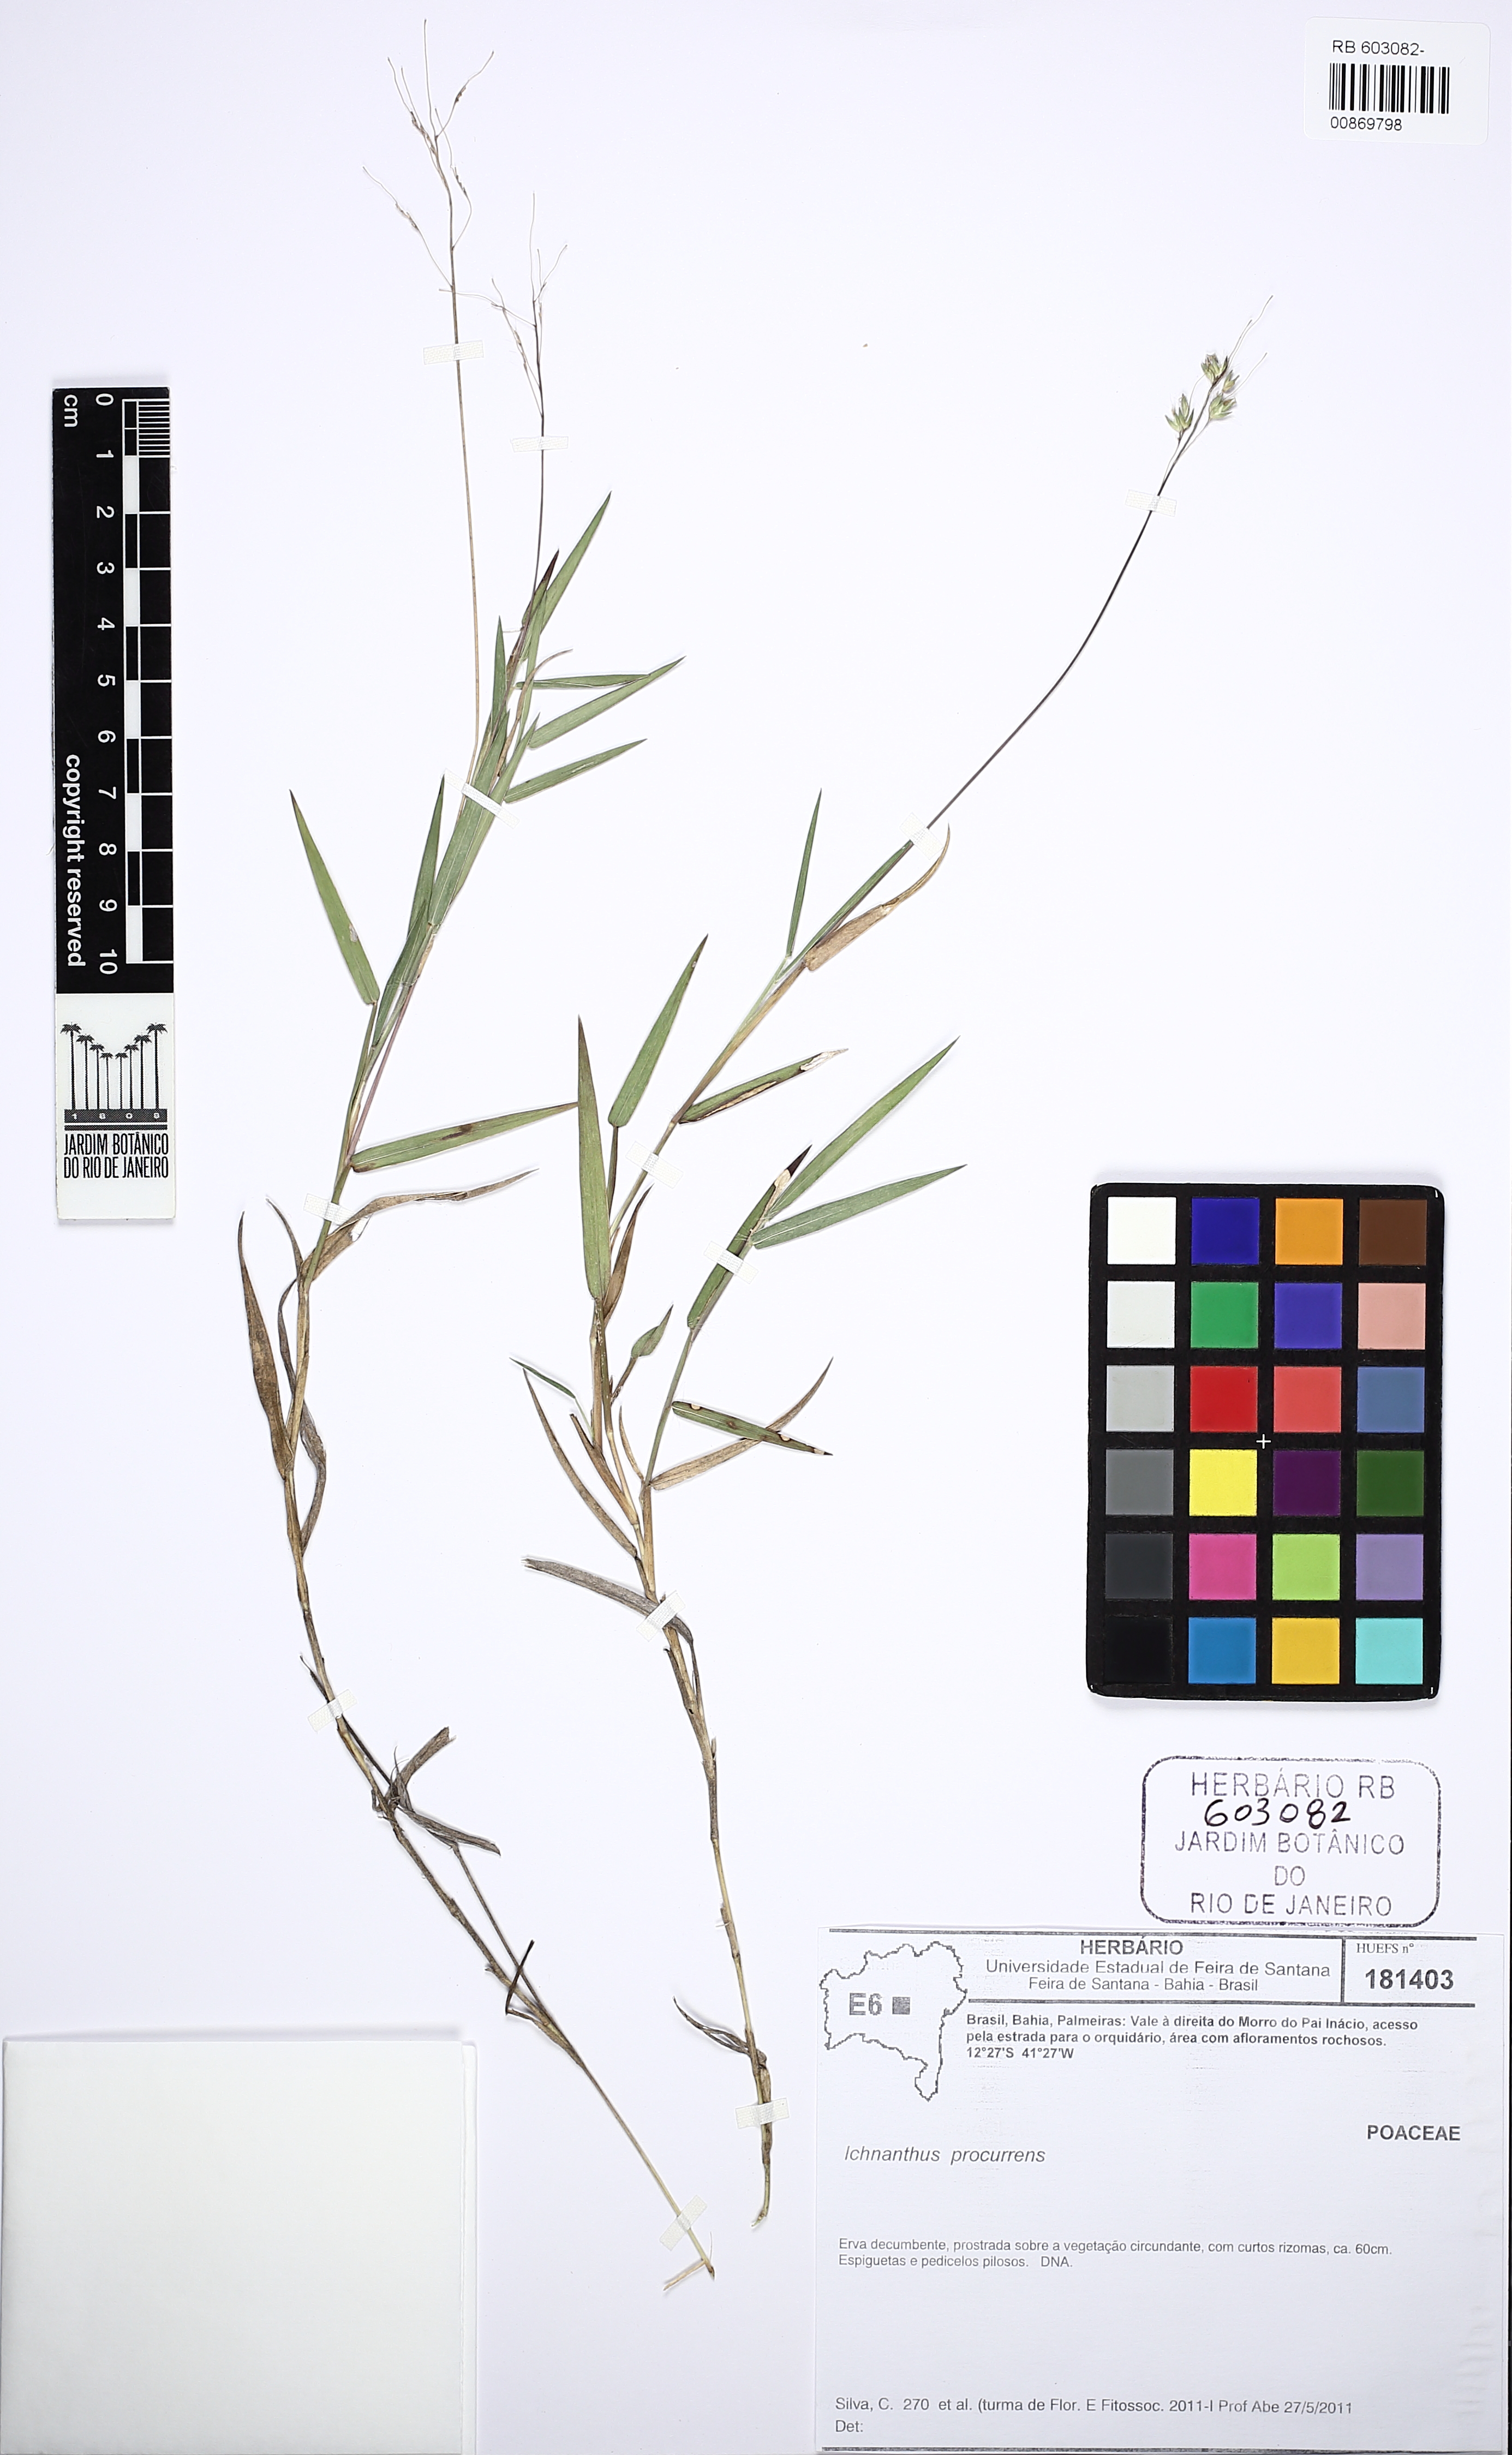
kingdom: Plantae
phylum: Tracheophyta
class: Liliopsida
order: Poales
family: Poaceae
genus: Oedochloa
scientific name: Oedochloa procurrens
